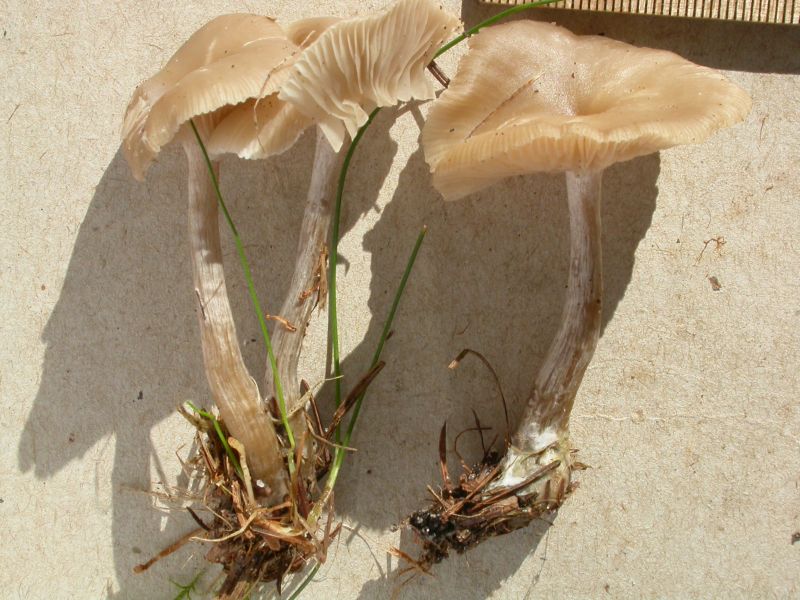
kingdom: Fungi
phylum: Basidiomycota
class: Agaricomycetes
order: Agaricales
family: Tricholomataceae
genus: Clitocybe
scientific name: Clitocybe metachroa
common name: grå tragthat
